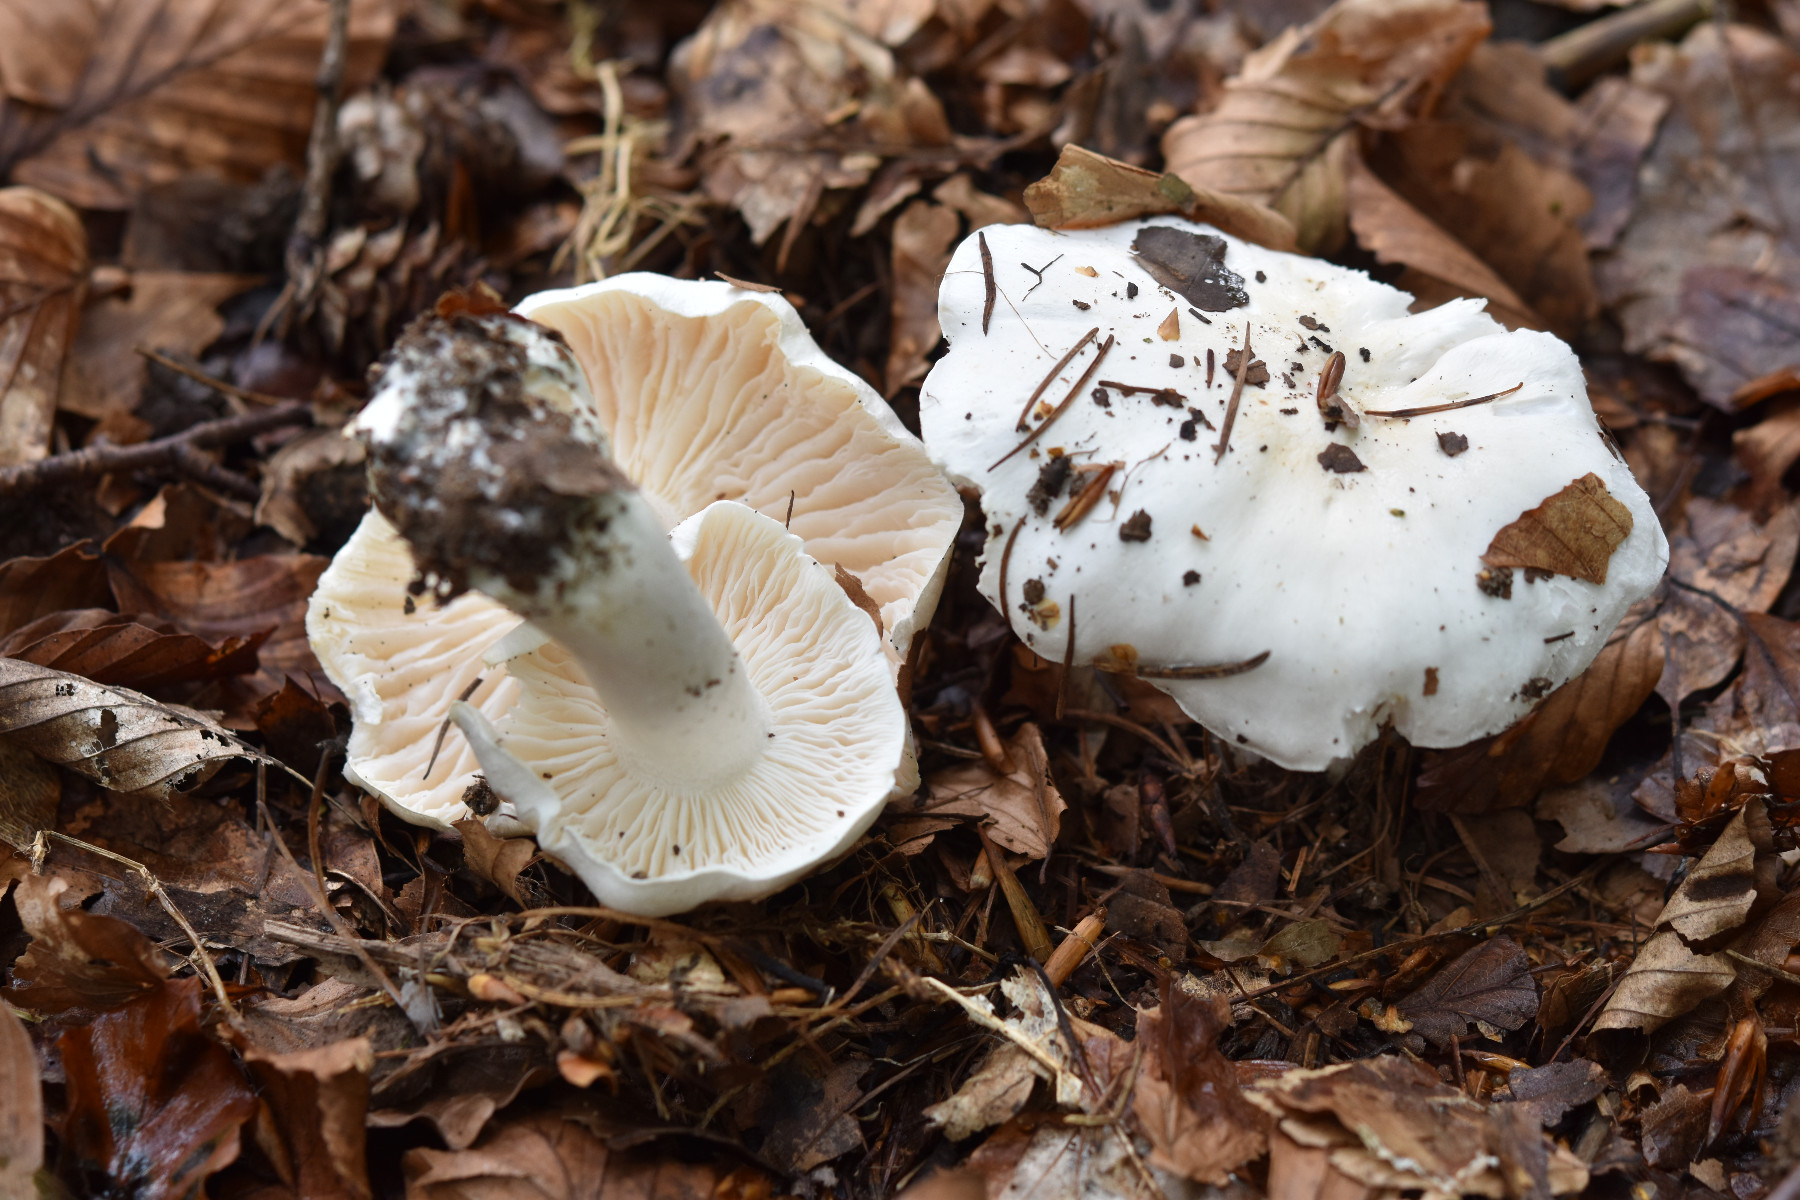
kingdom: Fungi
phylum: Basidiomycota
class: Agaricomycetes
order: Agaricales
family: Tricholomataceae
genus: Tricholoma
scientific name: Tricholoma columbetta
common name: silke-ridderhat
